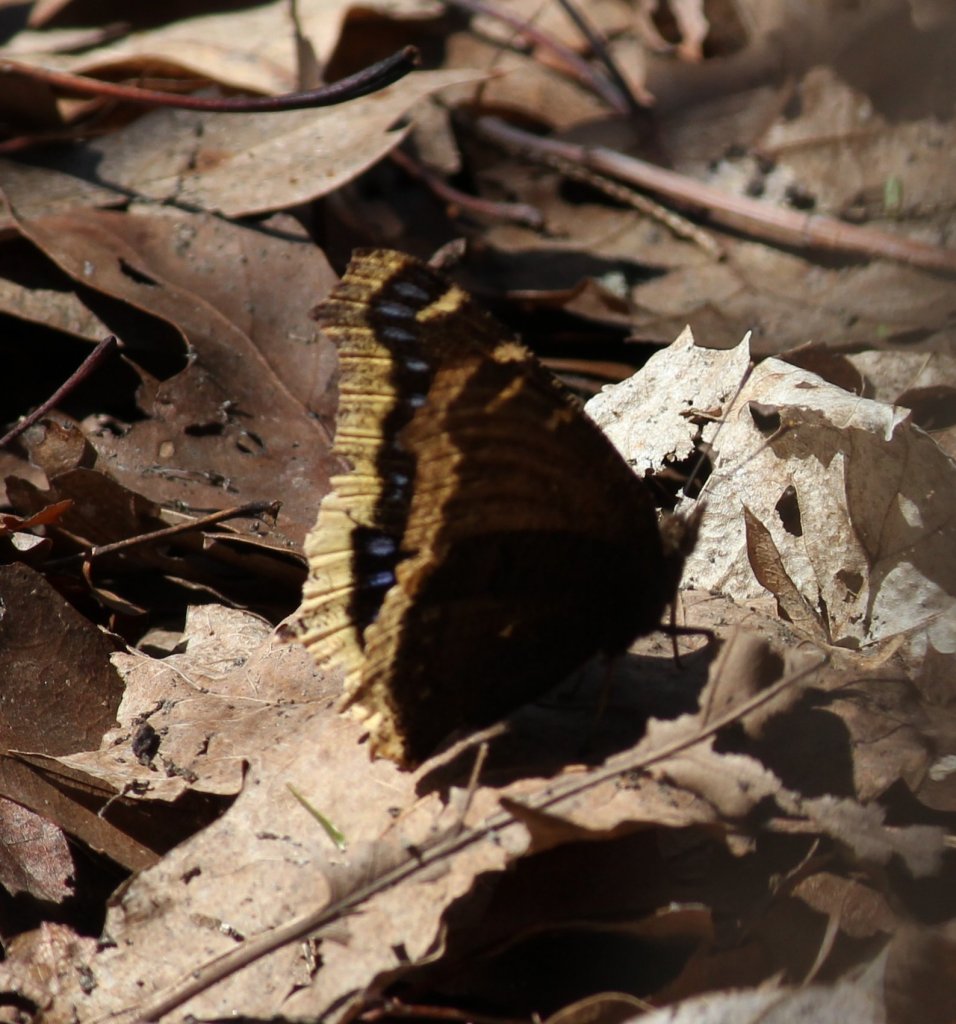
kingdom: Animalia
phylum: Arthropoda
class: Insecta
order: Lepidoptera
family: Nymphalidae
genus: Nymphalis
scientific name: Nymphalis antiopa
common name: Mourning Cloak
